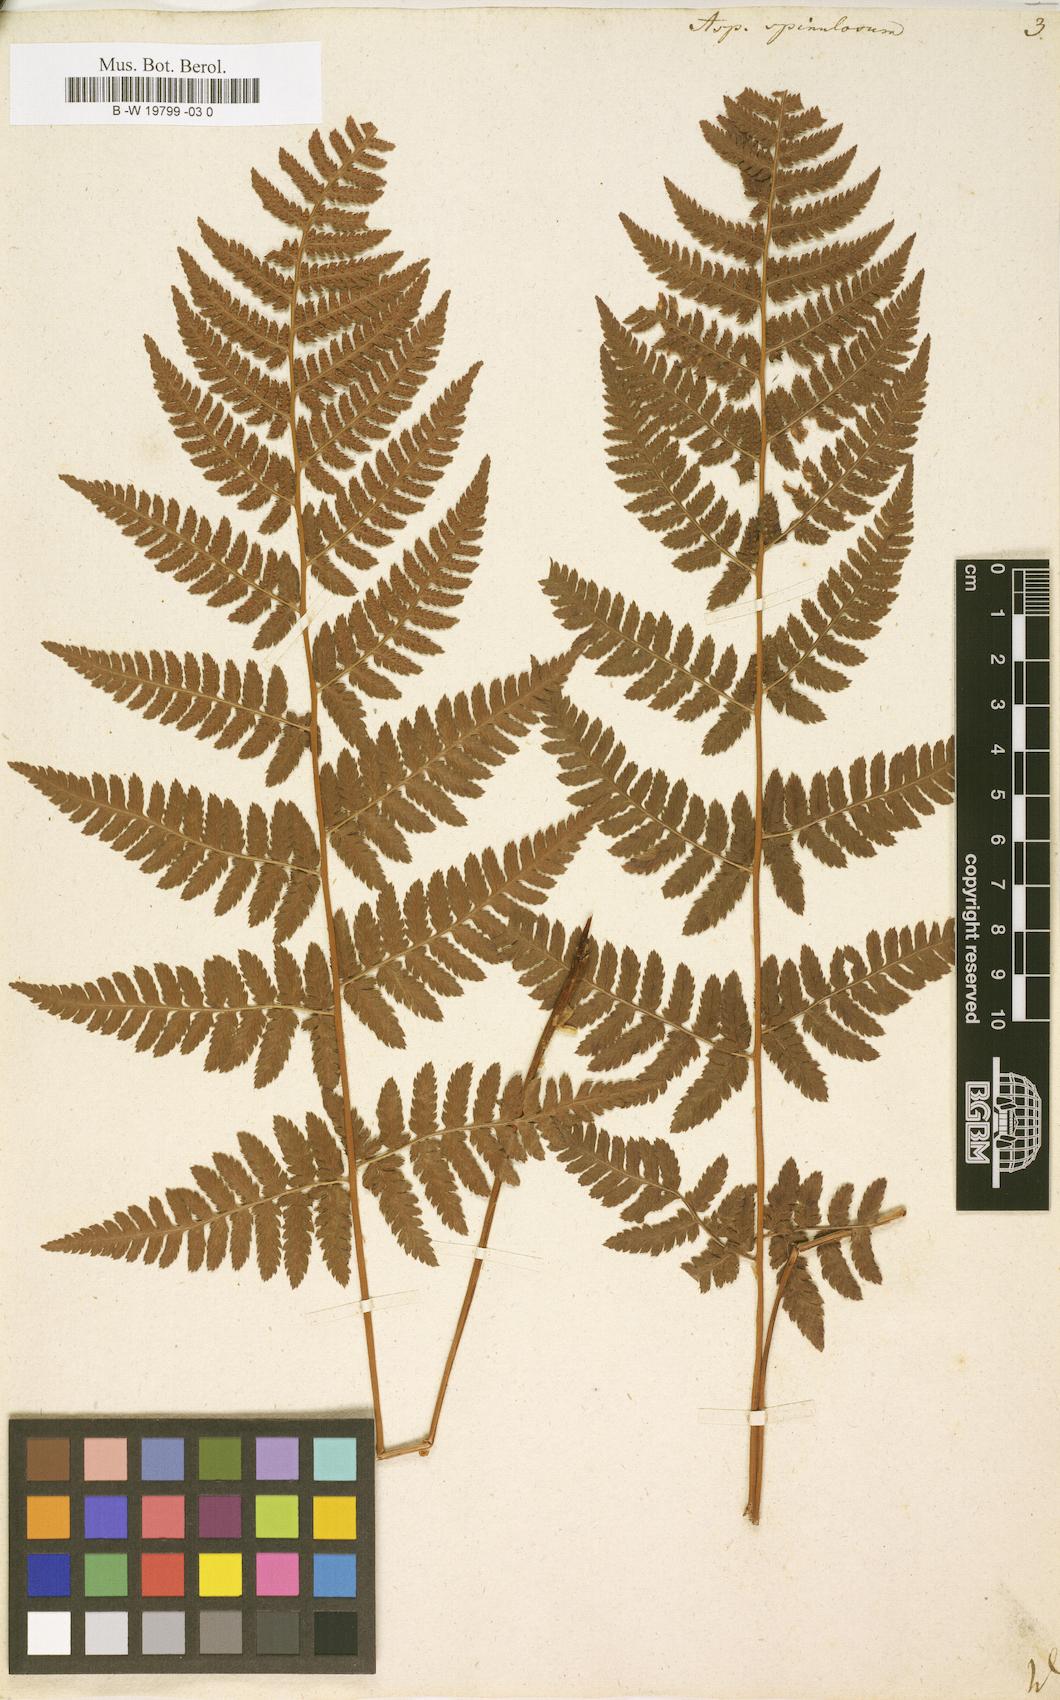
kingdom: Plantae
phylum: Tracheophyta
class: Polypodiopsida
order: Polypodiales
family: Dryopteridaceae
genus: Dryopteris
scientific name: Dryopteris
